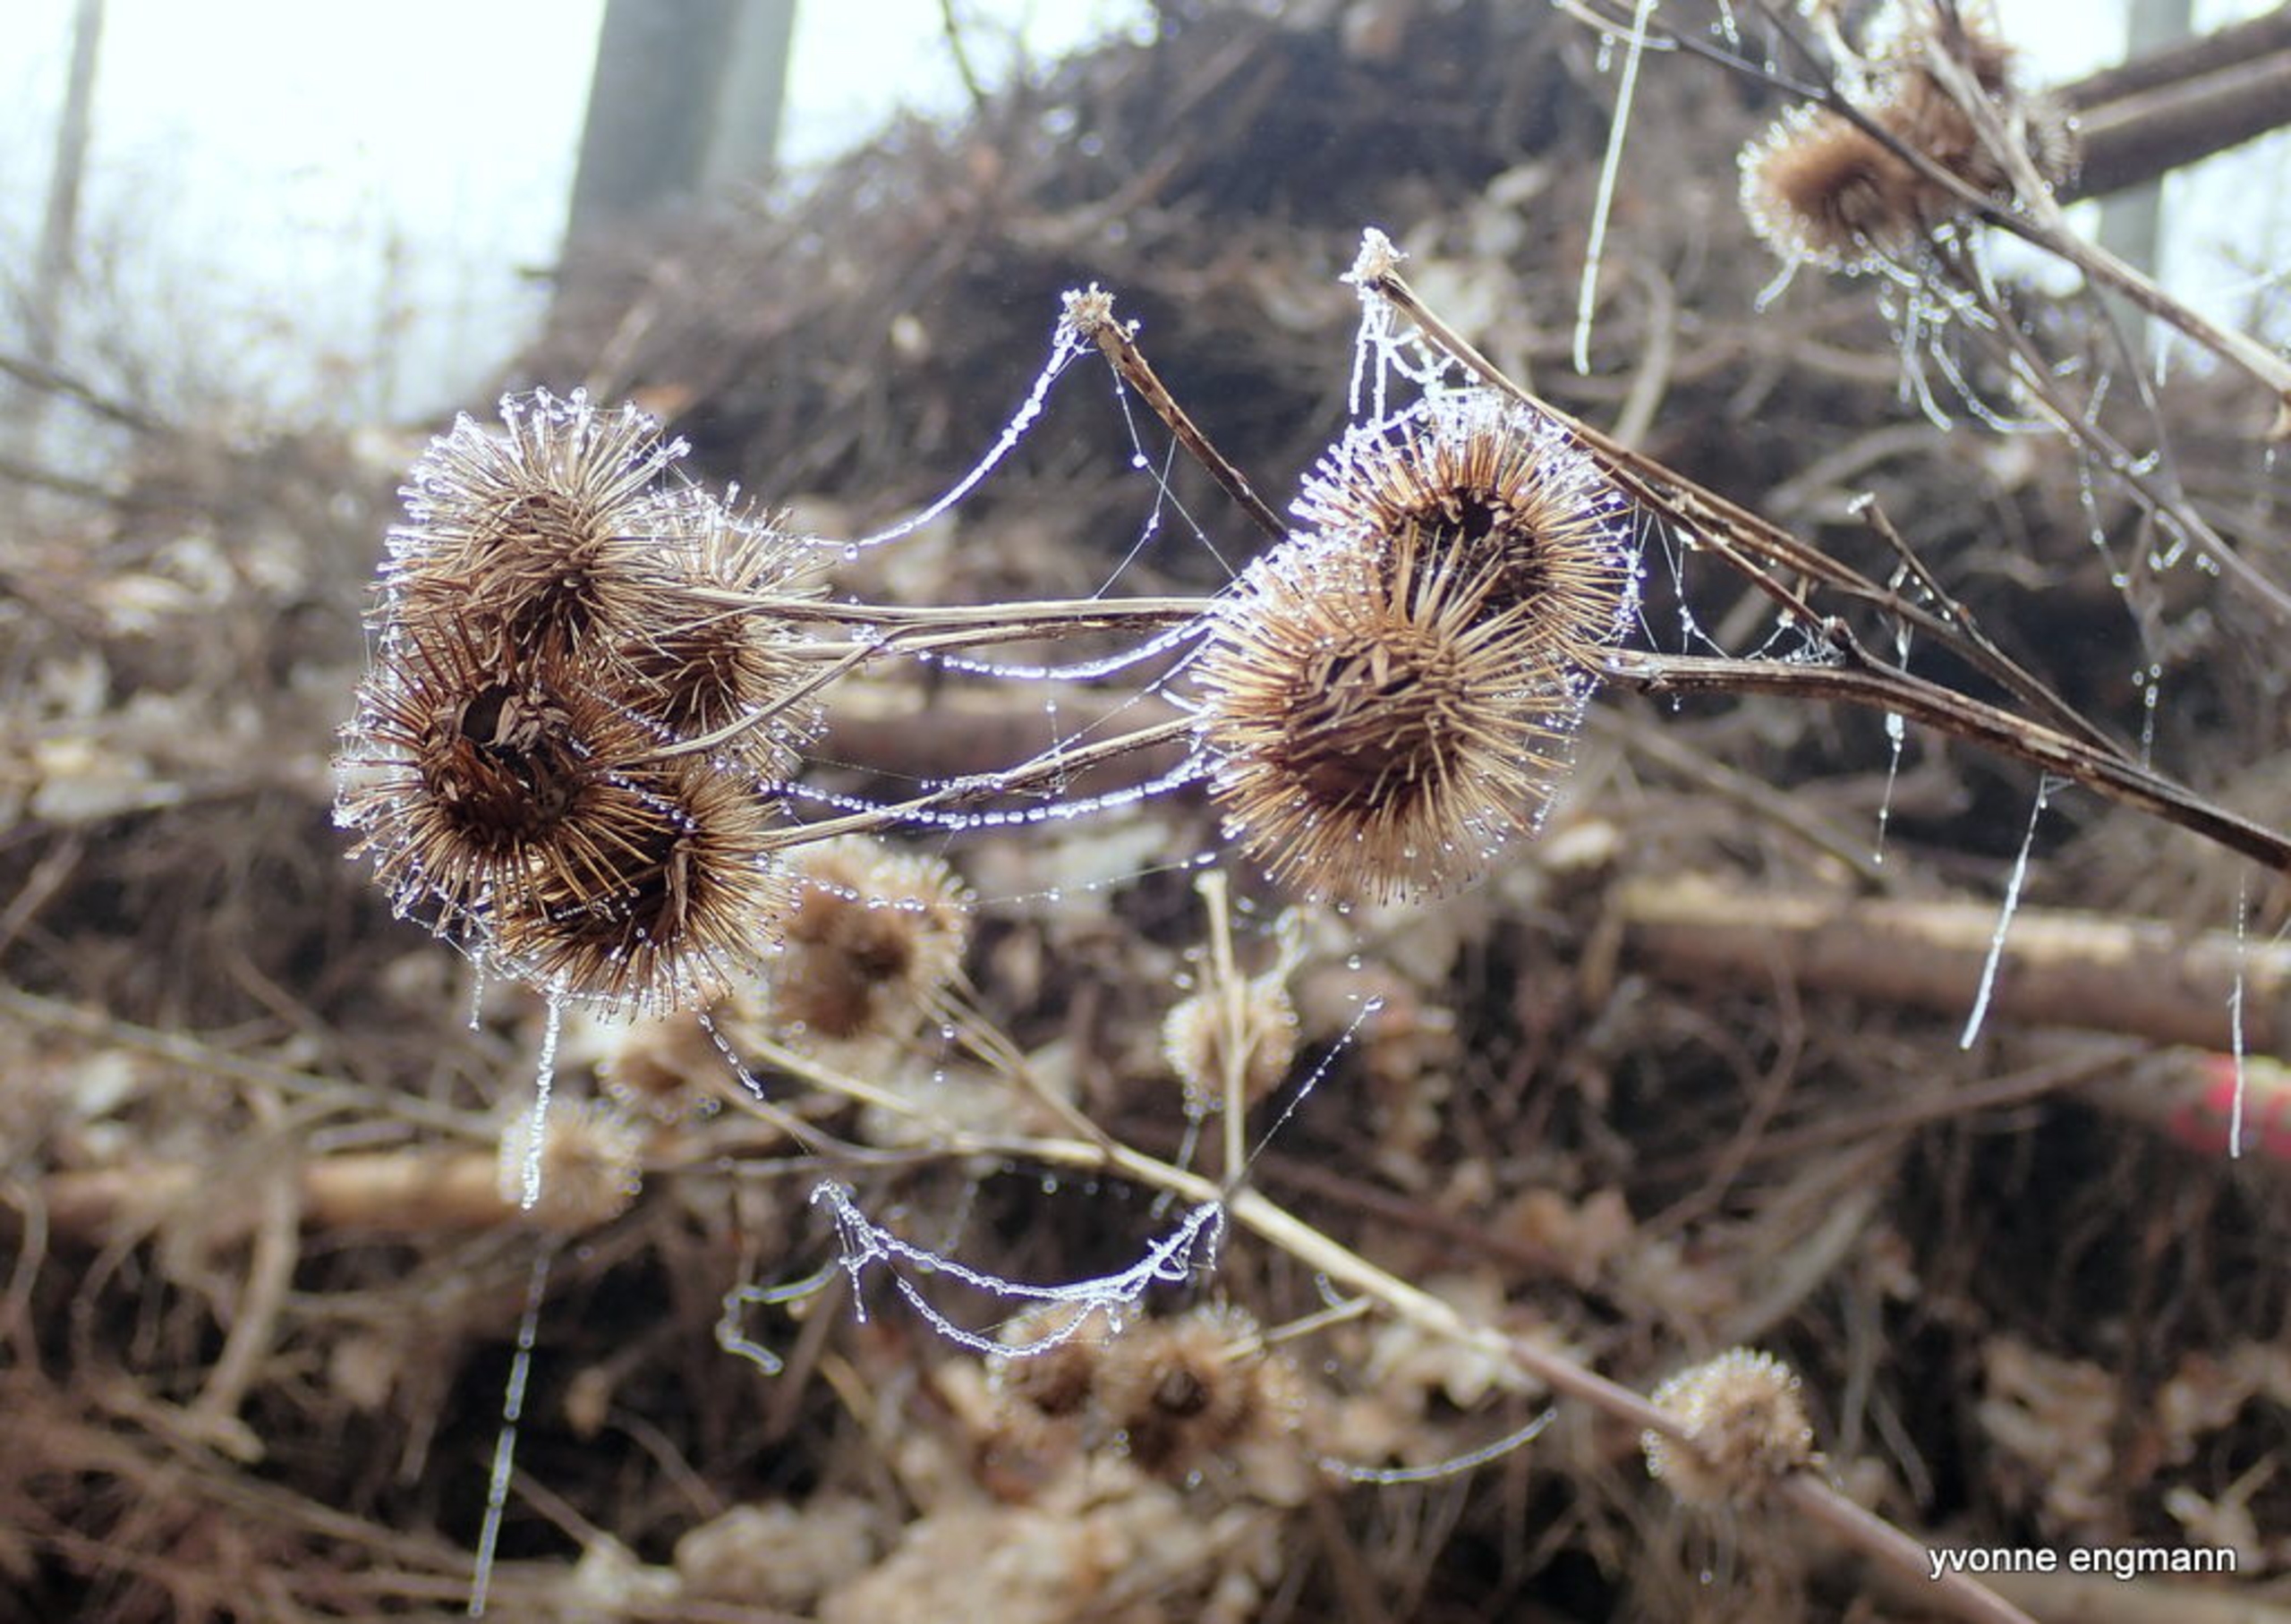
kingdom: Plantae
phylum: Tracheophyta
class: Magnoliopsida
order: Asterales
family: Asteraceae
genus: Arctium
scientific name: Arctium nemorosum
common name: Skov-burre
